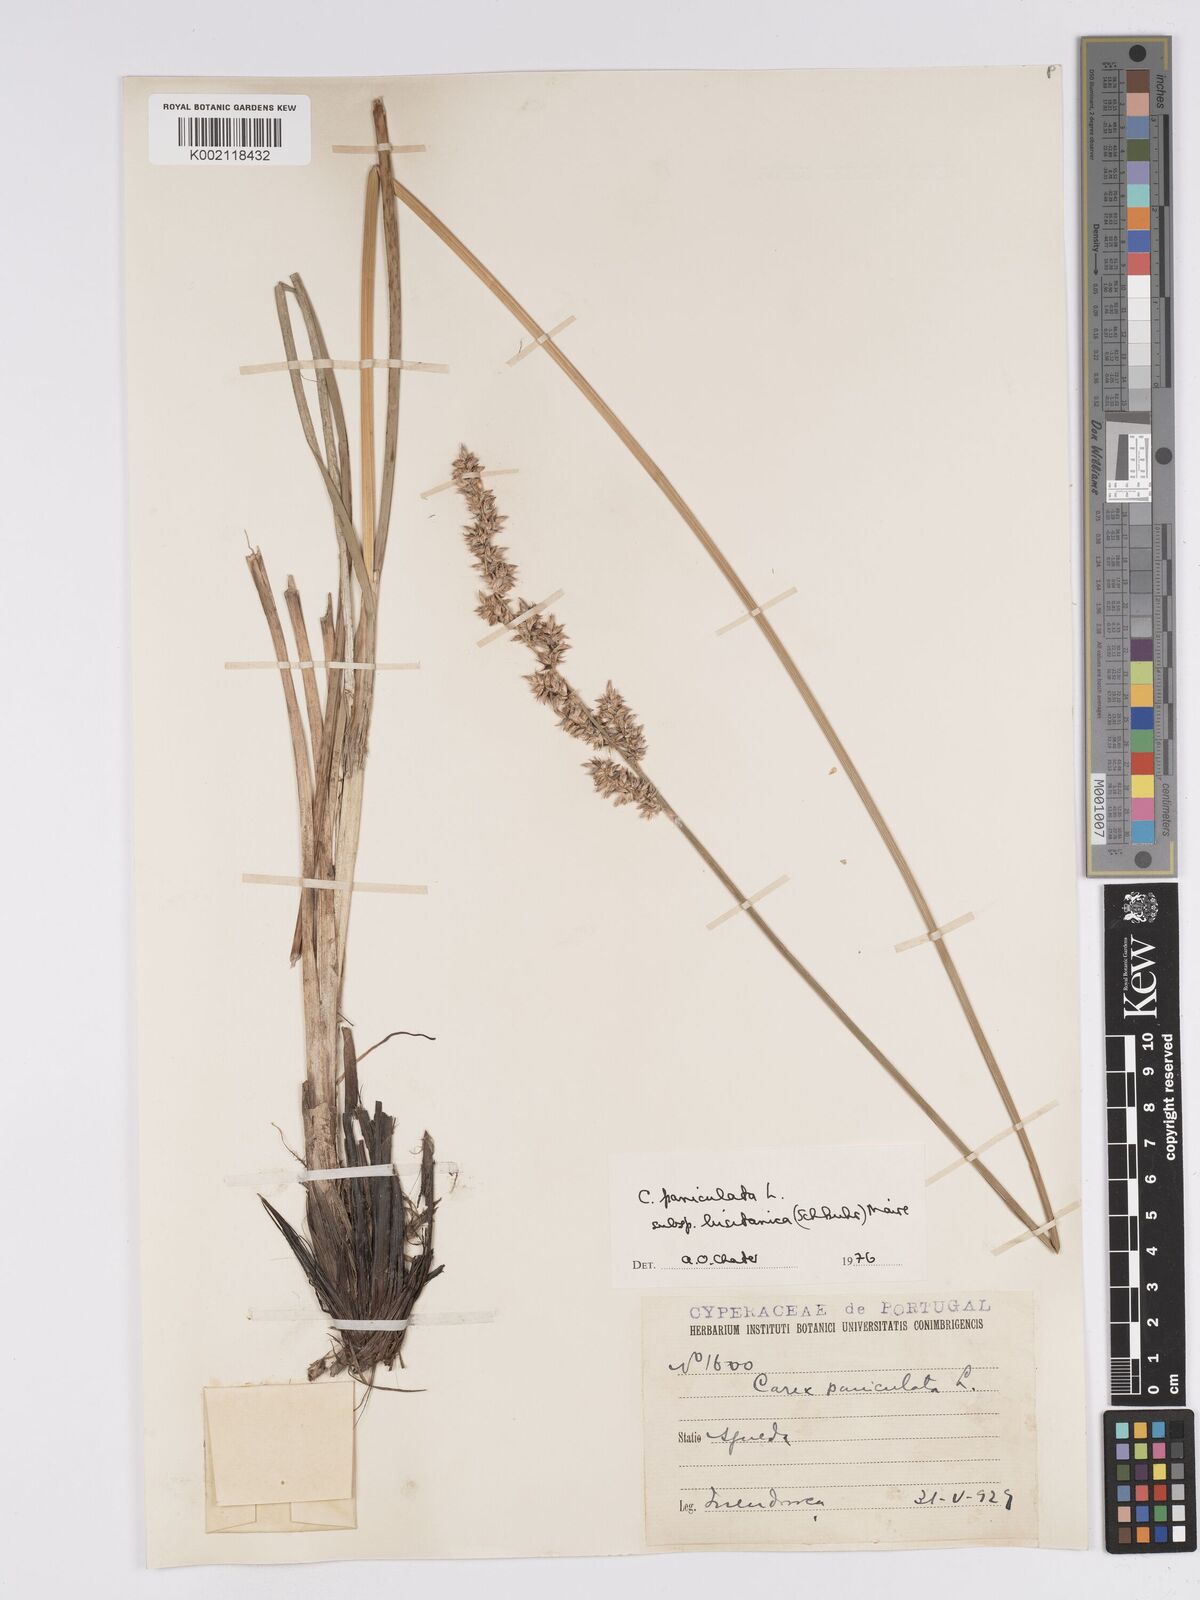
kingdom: Plantae
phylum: Tracheophyta
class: Liliopsida
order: Poales
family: Cyperaceae
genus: Carex
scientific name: Carex paniculata
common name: Greater tussock-sedge
